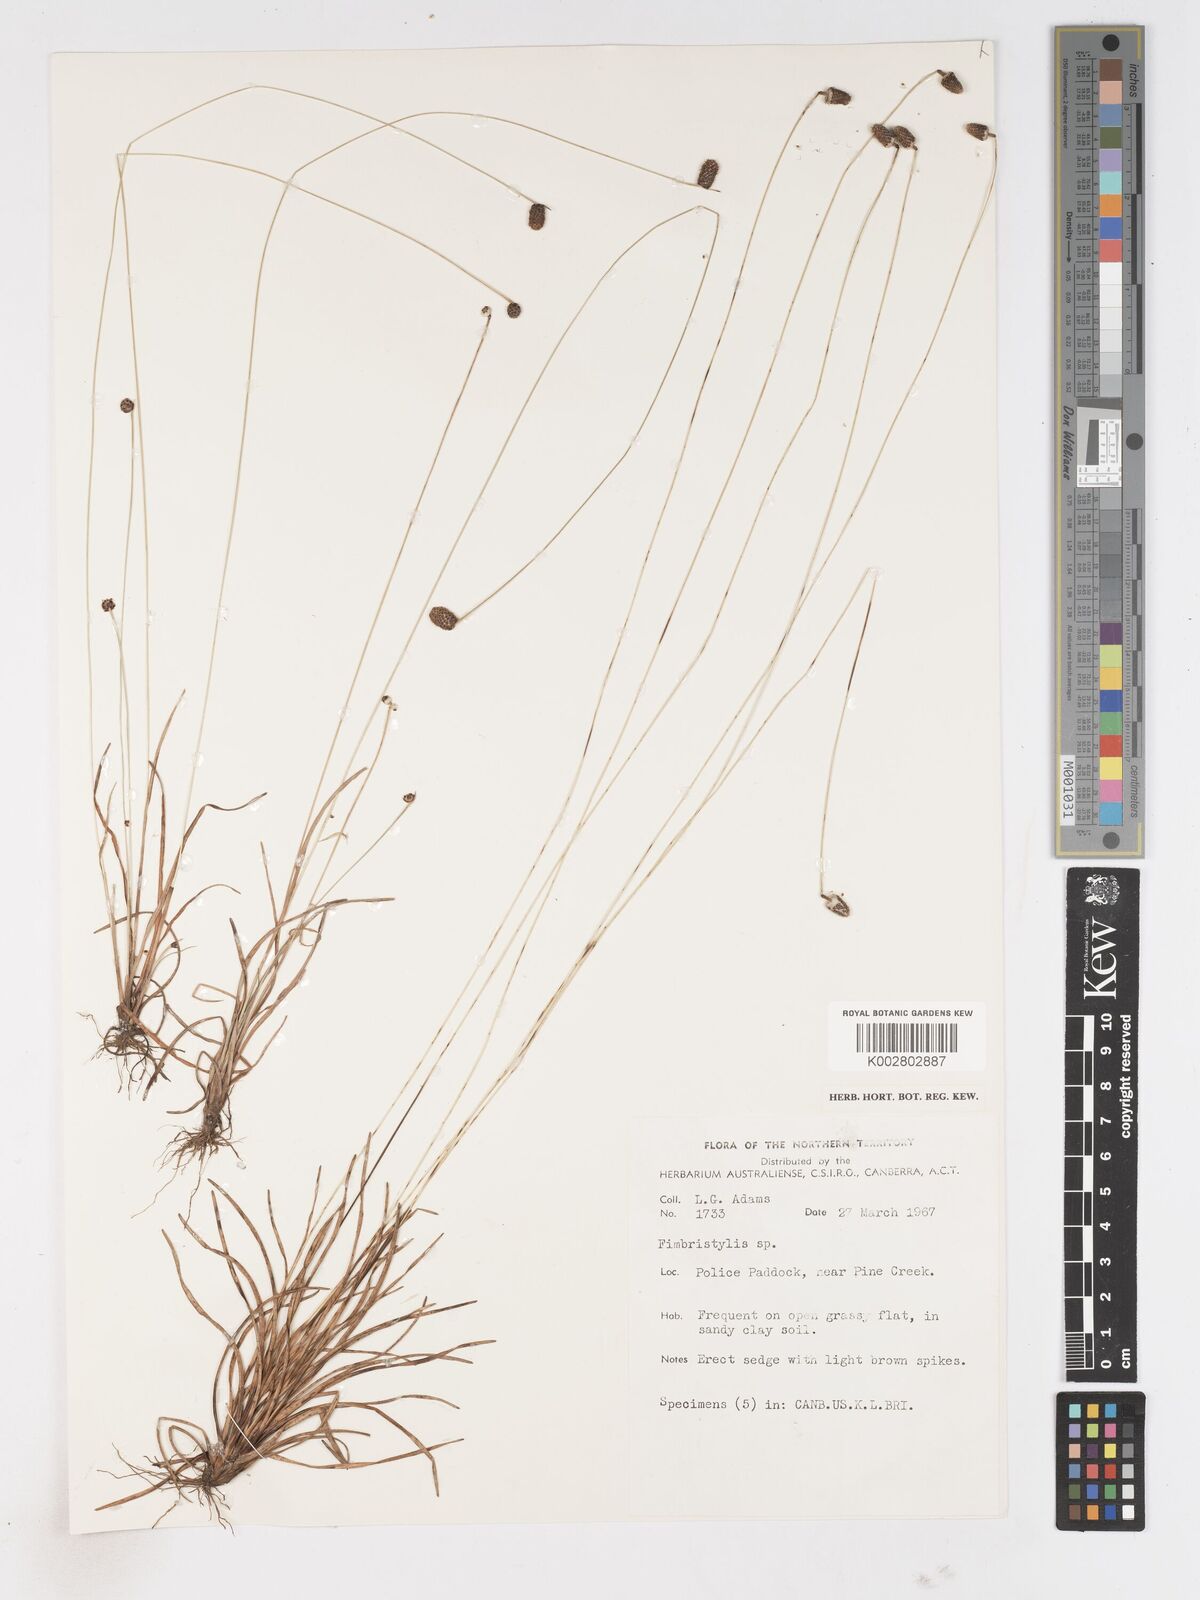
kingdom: Plantae
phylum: Tracheophyta
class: Liliopsida
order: Poales
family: Cyperaceae
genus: Fimbristylis
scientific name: Fimbristylis
